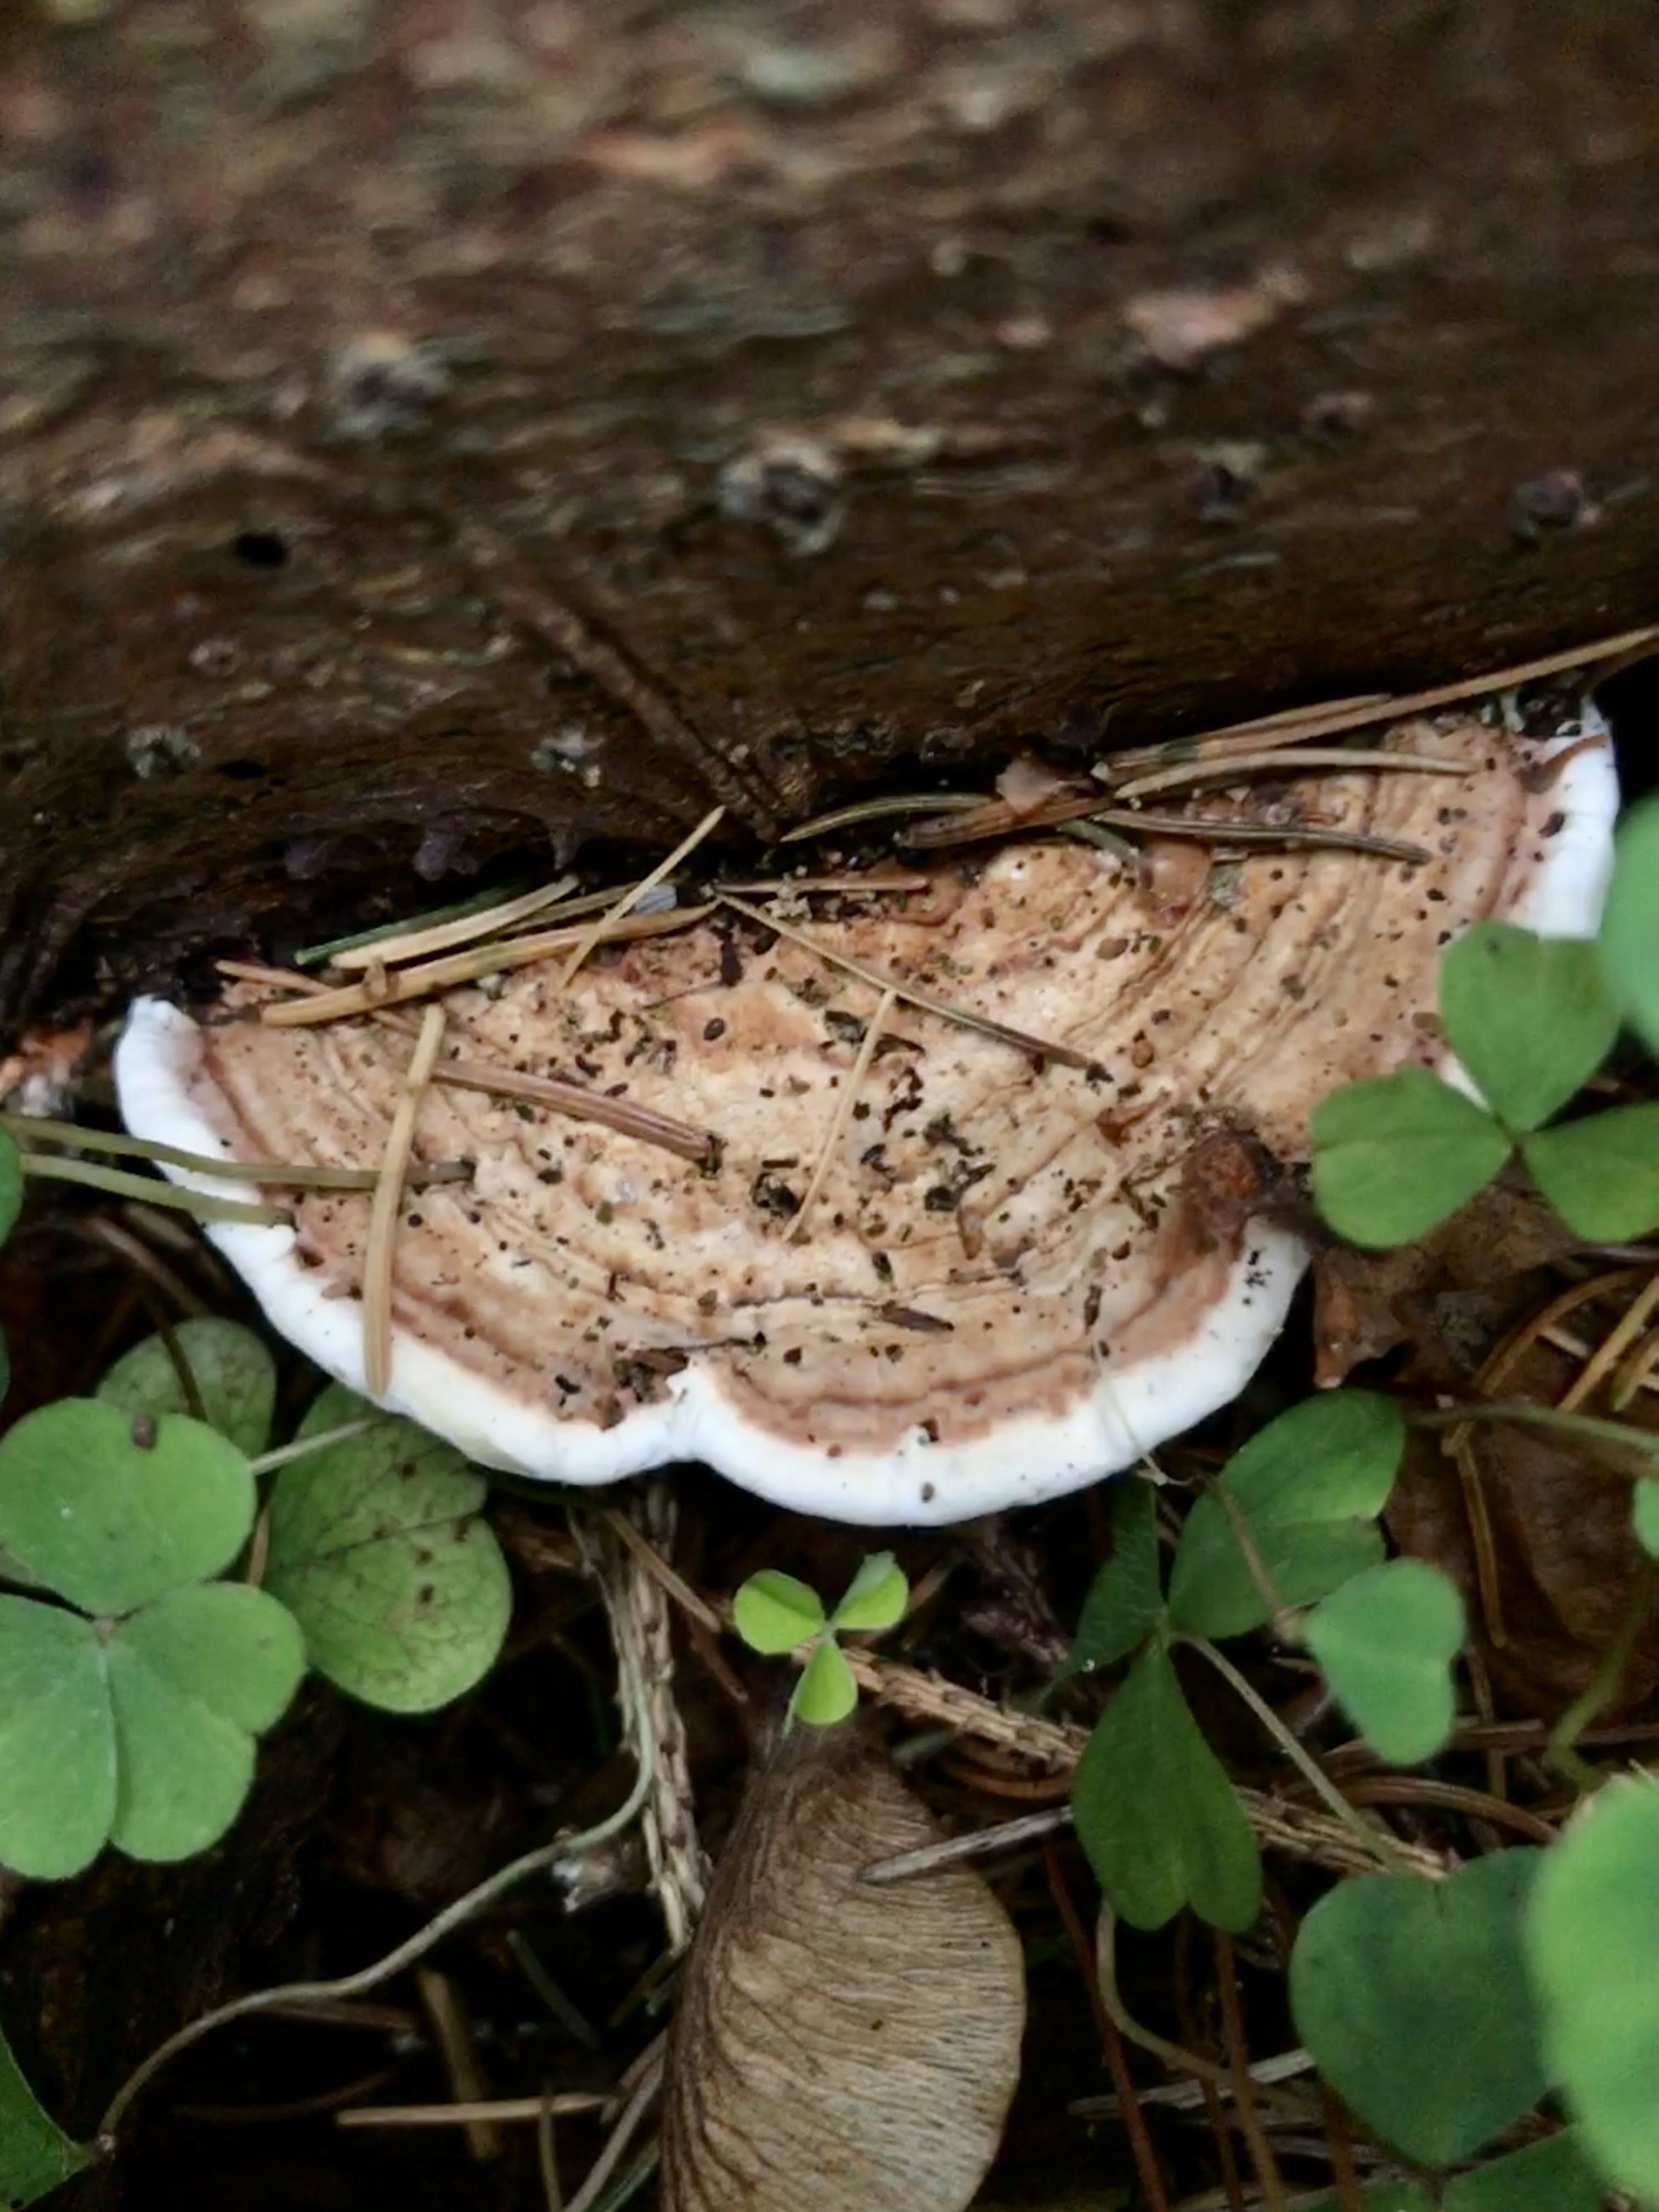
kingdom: Fungi
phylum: Basidiomycota
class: Agaricomycetes
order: Russulales
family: Bondarzewiaceae
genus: Heterobasidion
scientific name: Heterobasidion annosum
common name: almindelig rodfordærver
